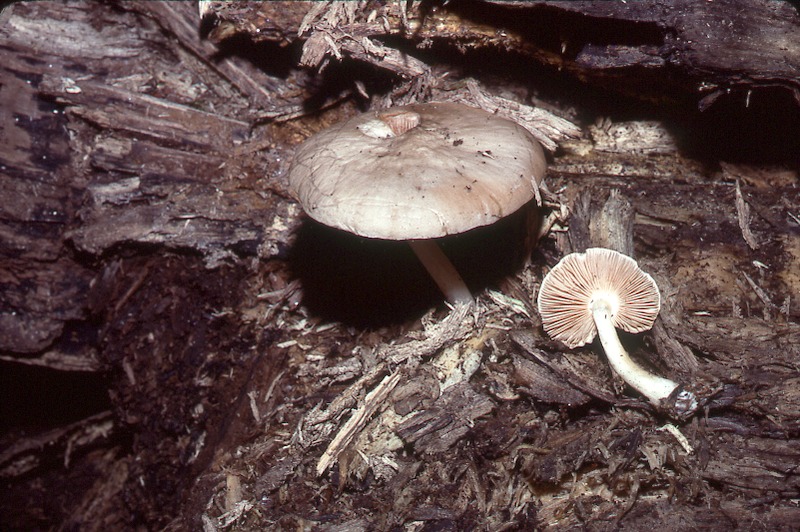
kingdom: Fungi
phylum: Basidiomycota
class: Agaricomycetes
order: Agaricales
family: Pluteaceae
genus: Pluteus
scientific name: Pluteus pellitus
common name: Ghost shield
